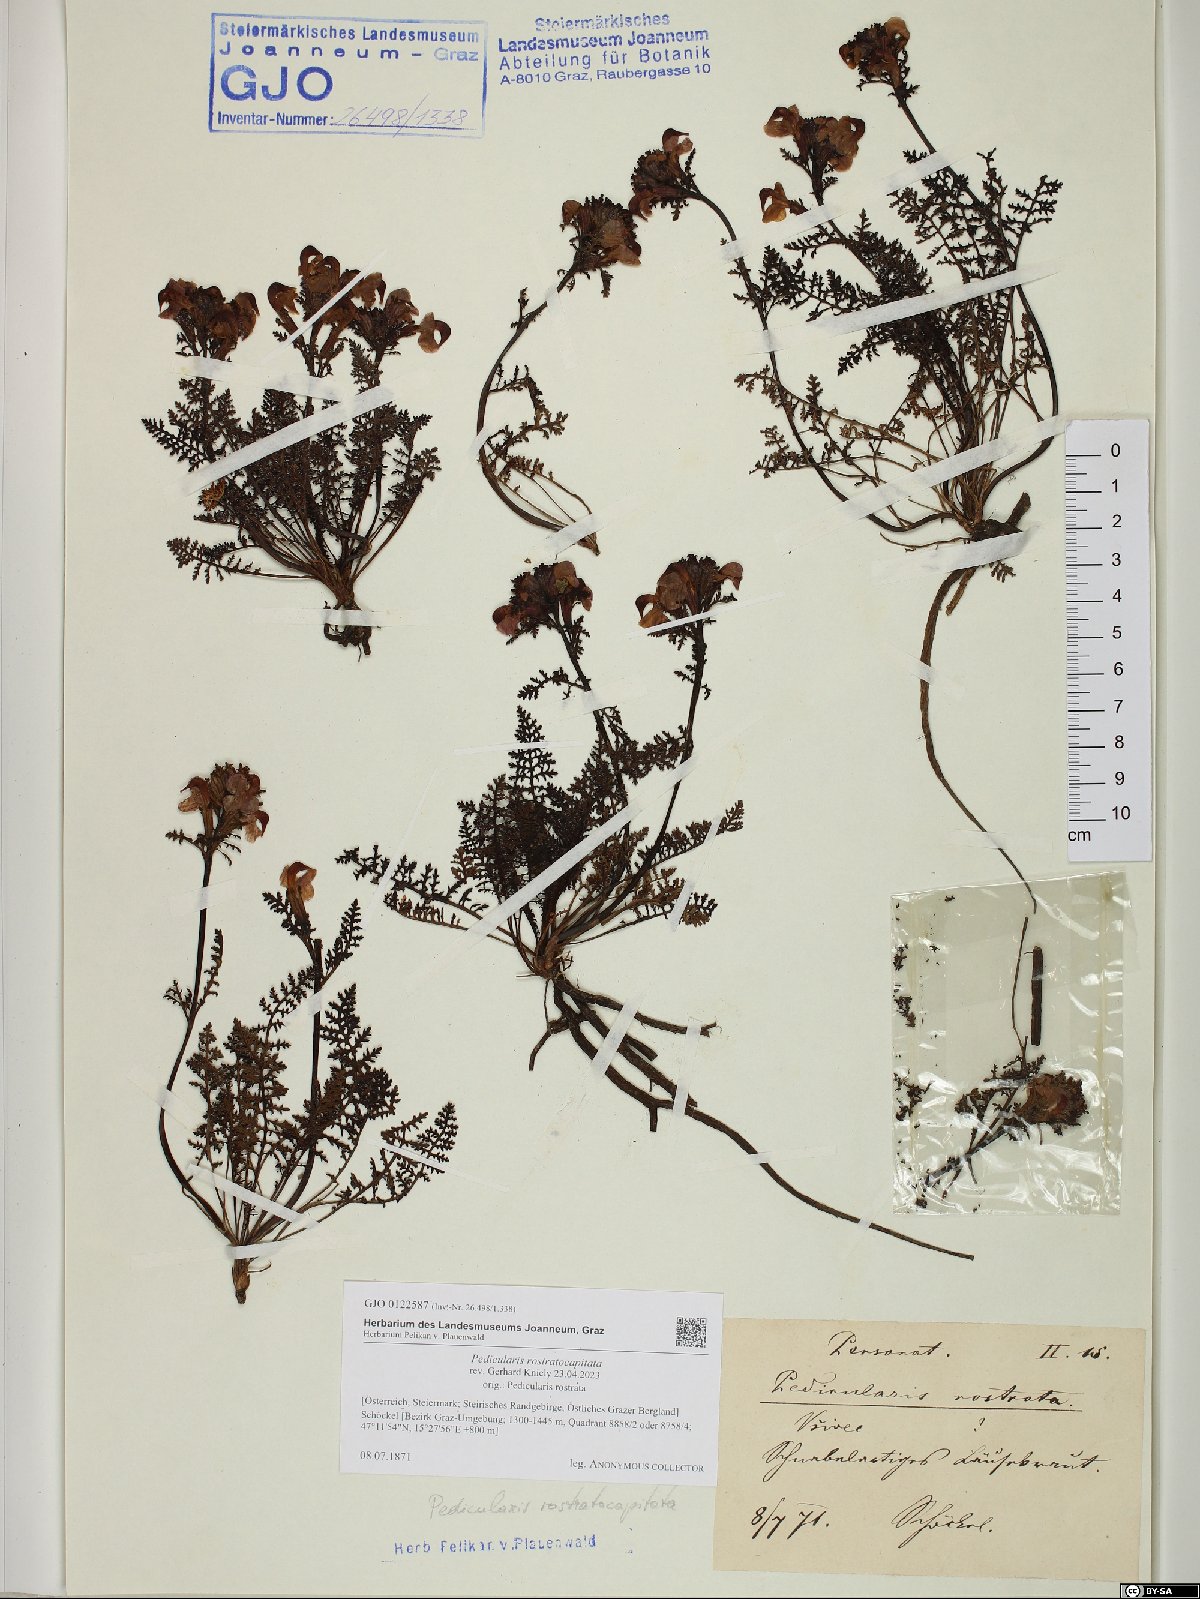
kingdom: Plantae
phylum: Tracheophyta
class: Magnoliopsida
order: Lamiales
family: Orobanchaceae
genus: Pedicularis
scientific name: Pedicularis rostratocapitata
